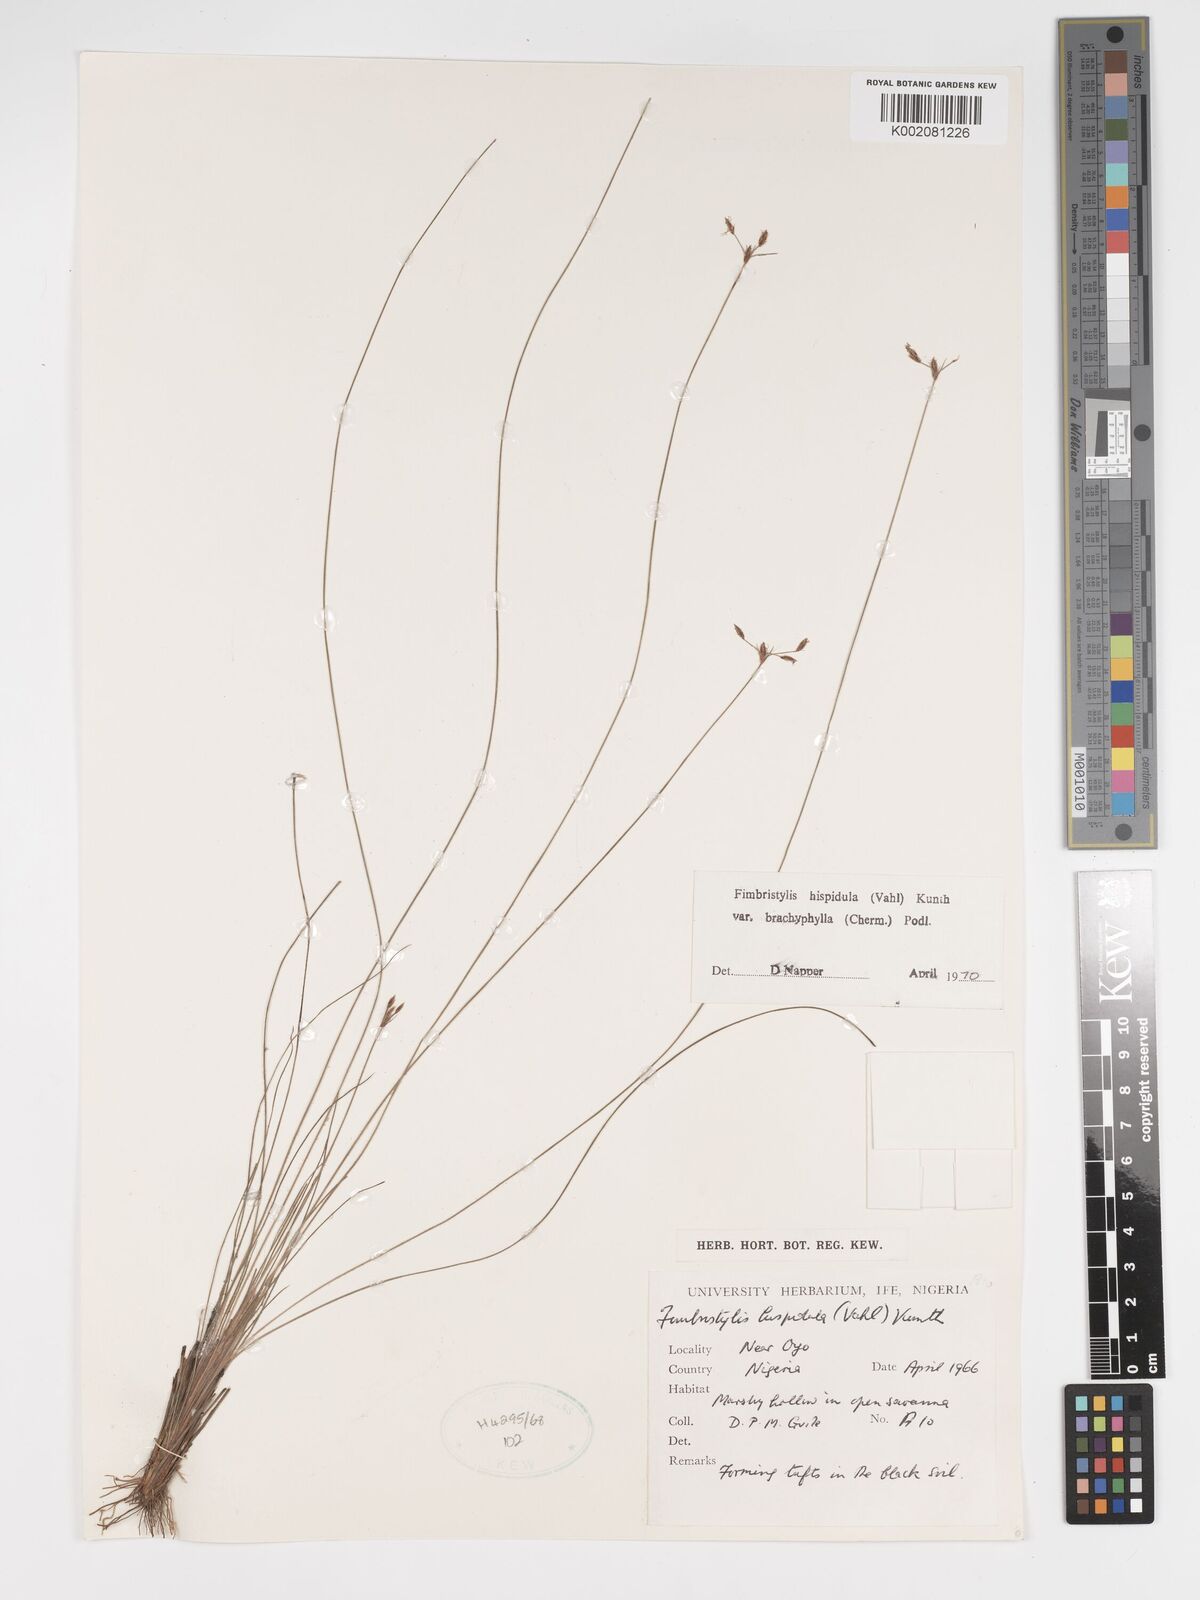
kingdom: Plantae
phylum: Tracheophyta
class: Liliopsida
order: Poales
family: Cyperaceae
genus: Bulbostylis
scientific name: Bulbostylis hispidula
